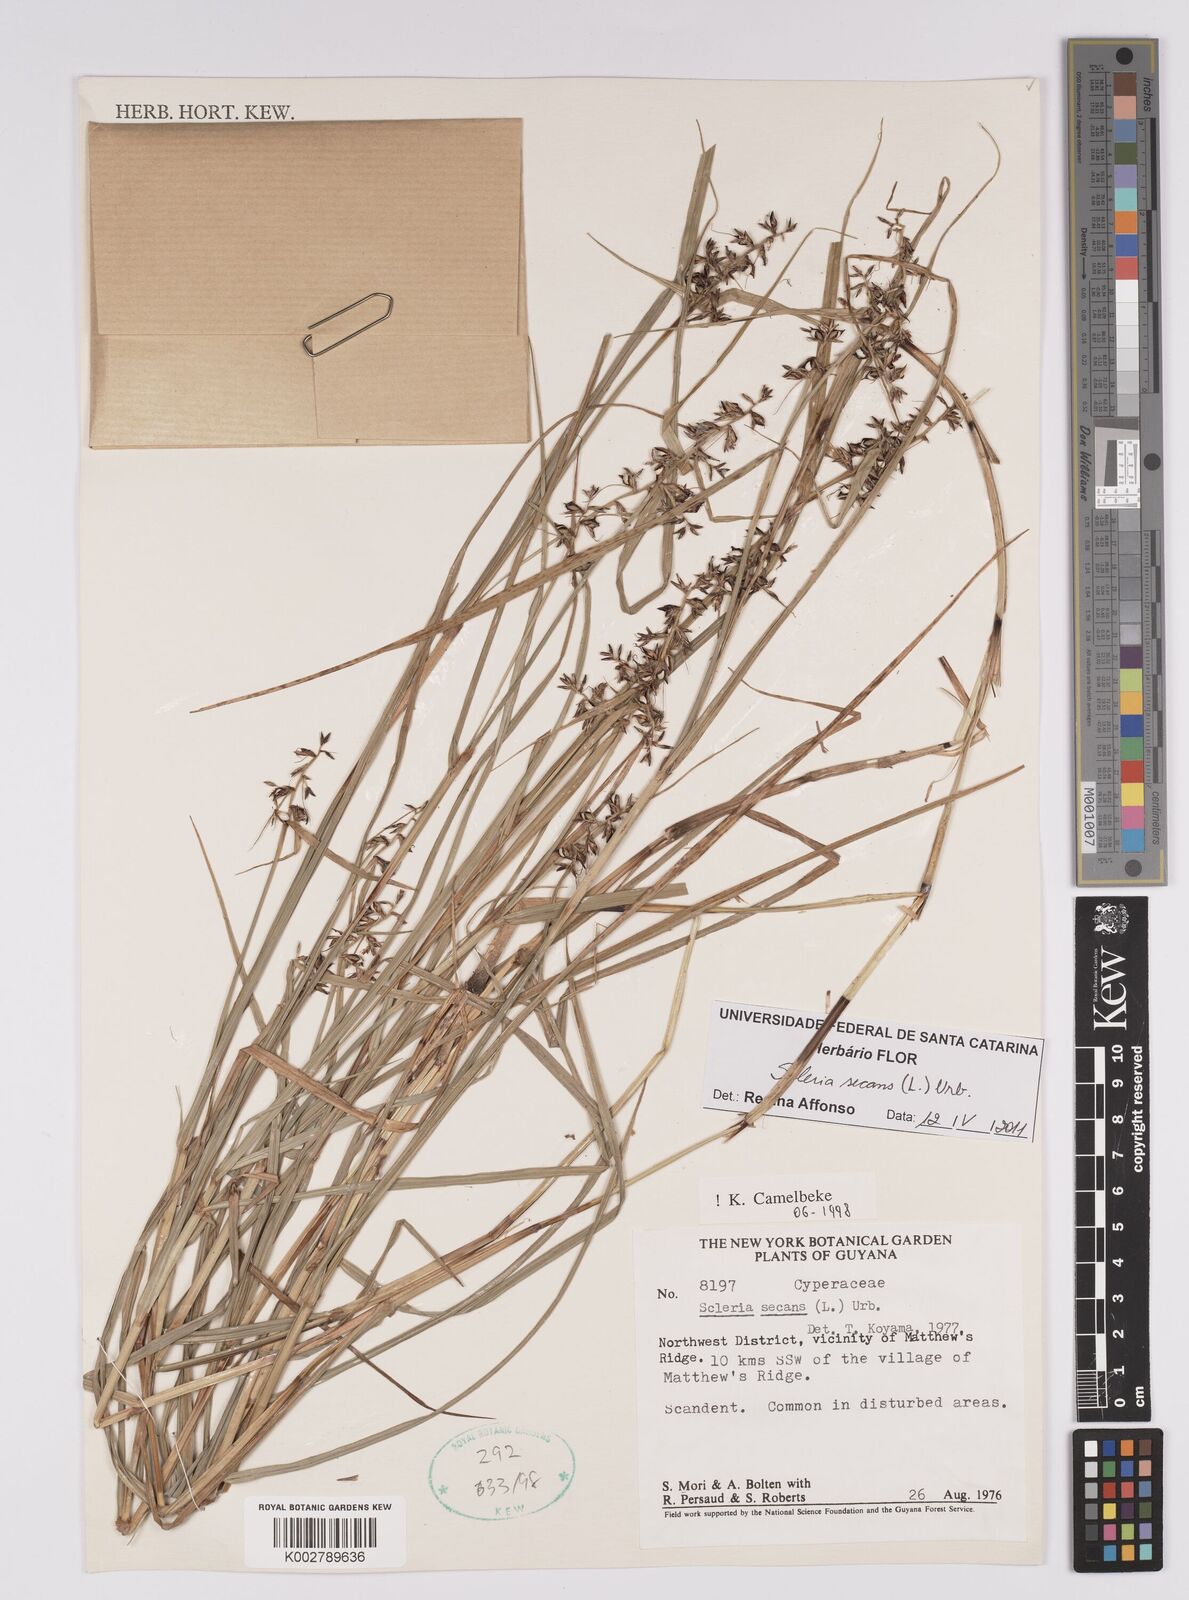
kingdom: Plantae
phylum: Tracheophyta
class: Liliopsida
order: Poales
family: Cyperaceae
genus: Scleria
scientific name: Scleria secans
